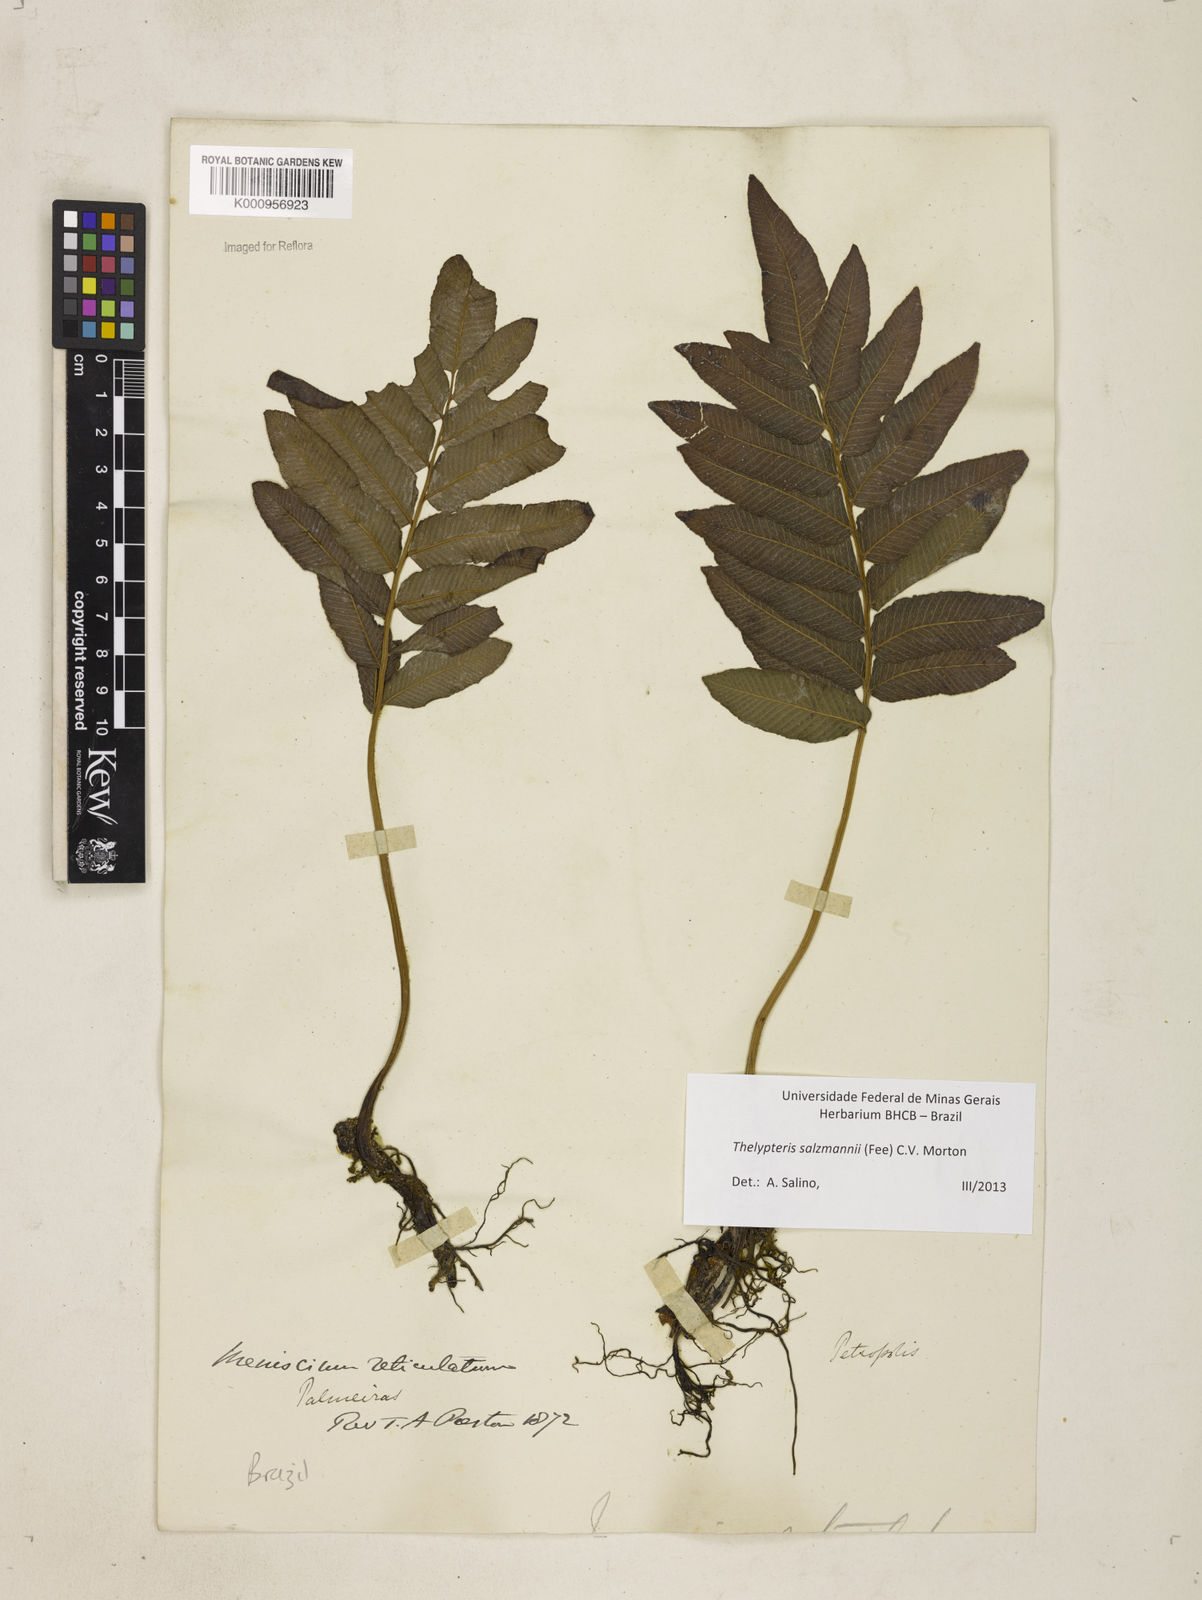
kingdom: Plantae
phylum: Tracheophyta
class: Polypodiopsida
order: Polypodiales
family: Thelypteridaceae
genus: Meniscium
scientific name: Meniscium arborescens
